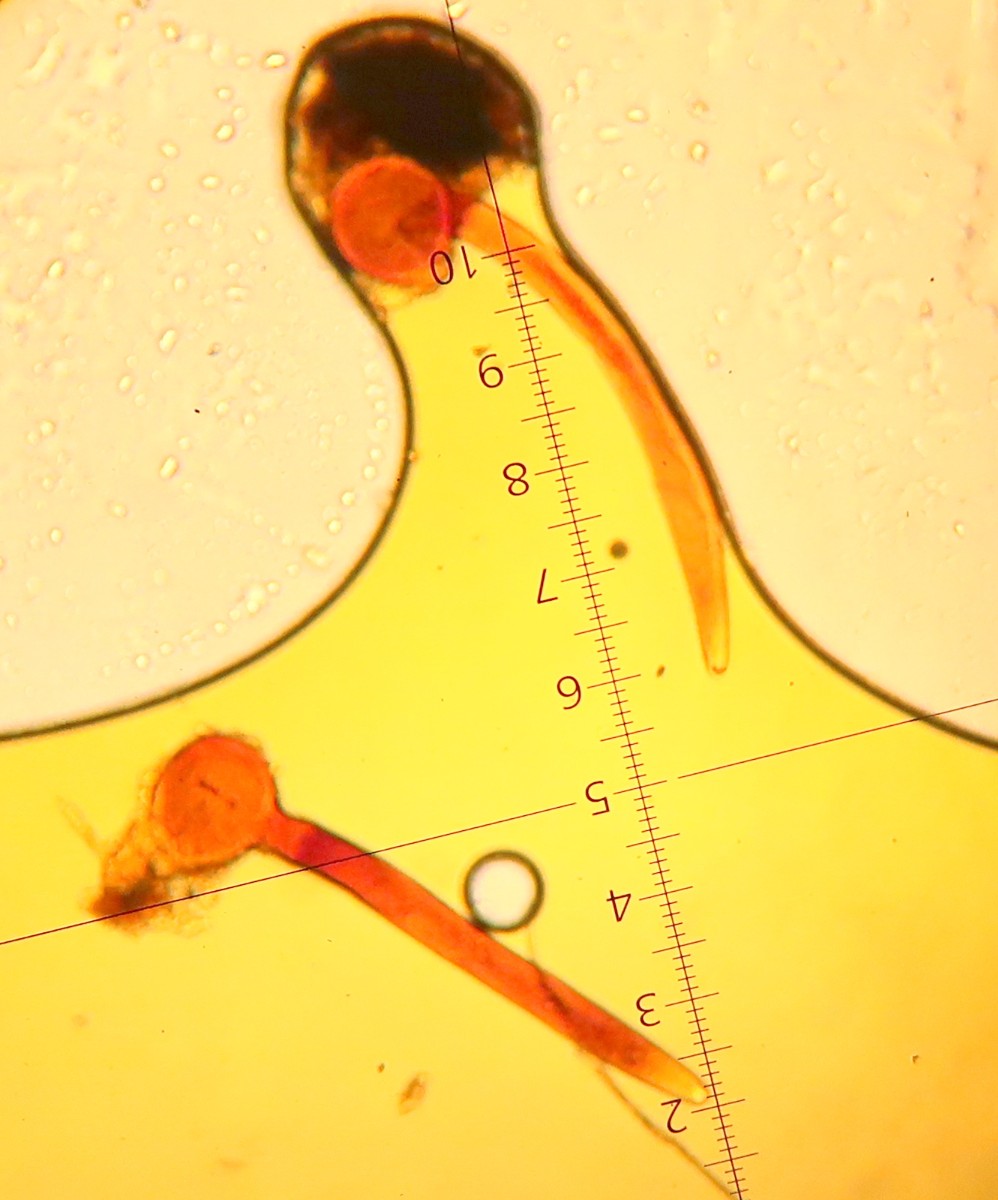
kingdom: Fungi
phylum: Mucoromycota
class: Mucoromycetes
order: Mucorales
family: Pilobolaceae
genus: Pilobolus
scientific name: Pilobolus crystallinus
